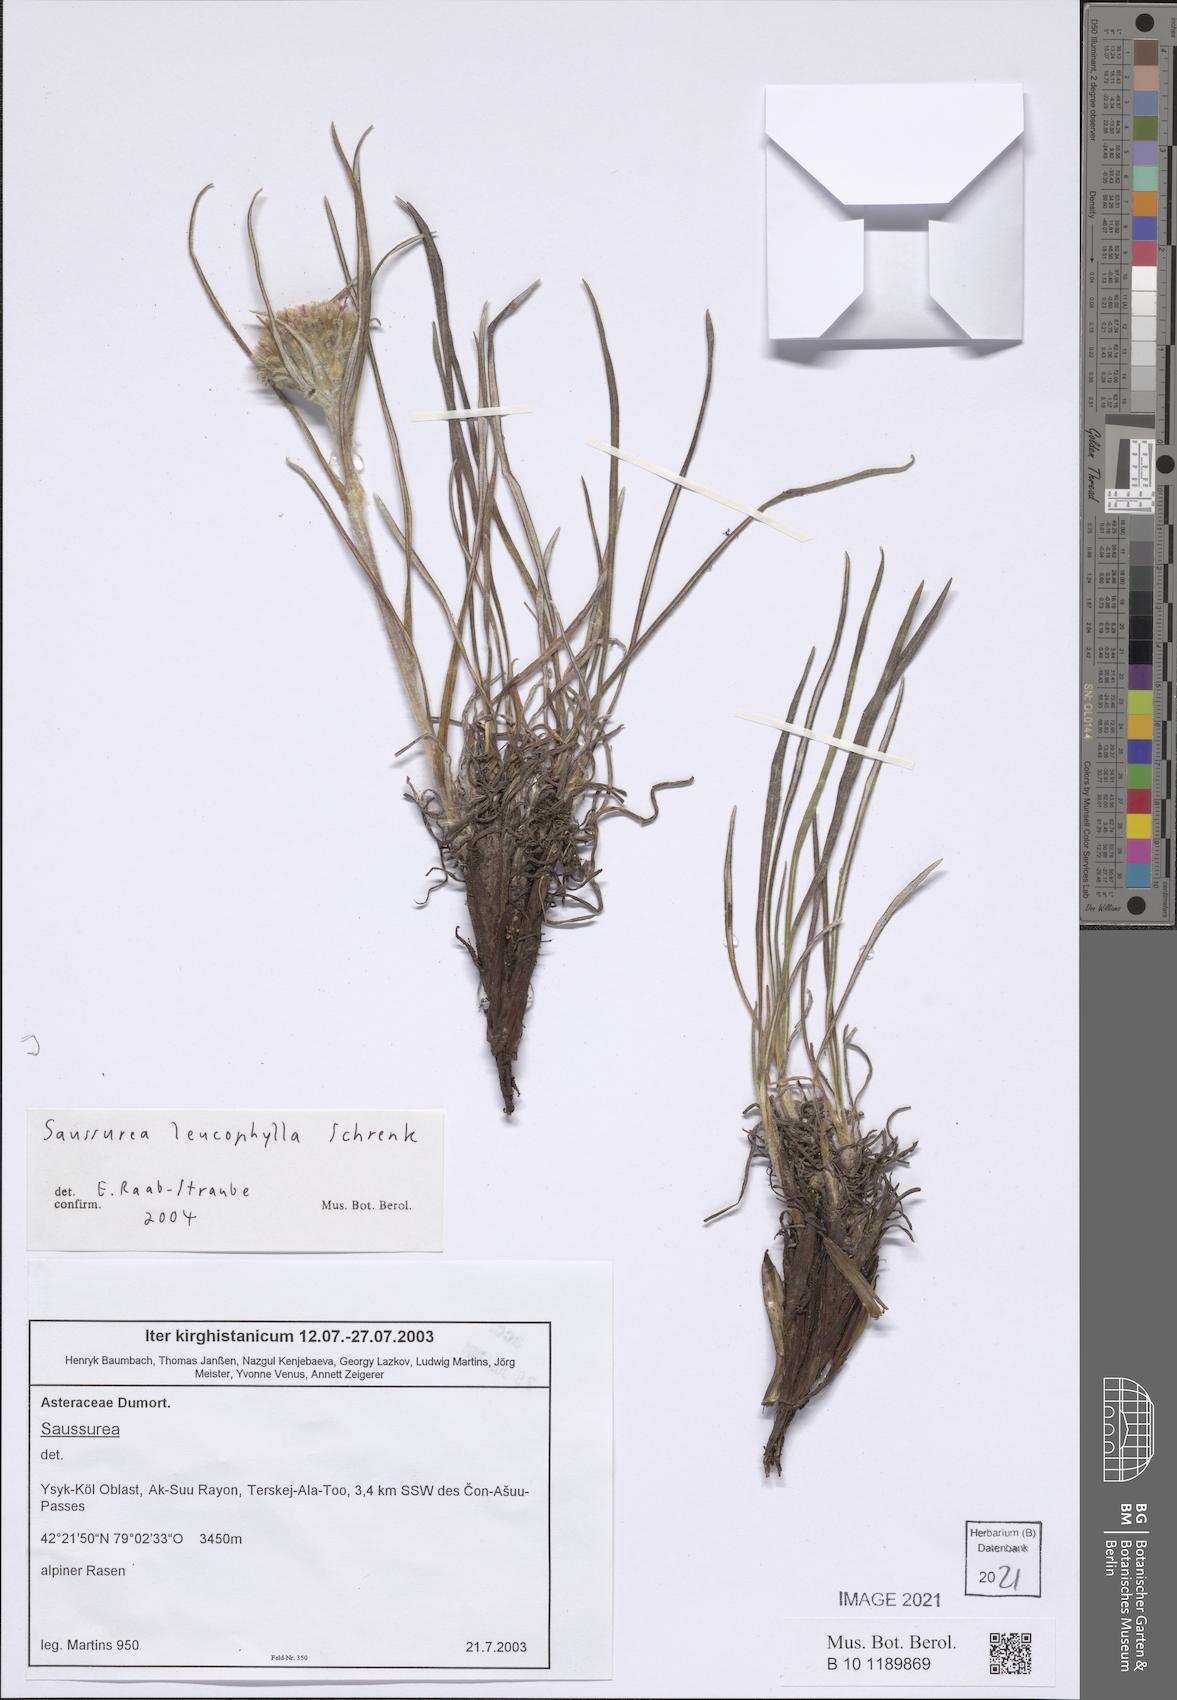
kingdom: Plantae
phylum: Tracheophyta
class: Magnoliopsida
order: Asterales
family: Asteraceae
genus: Saussurea
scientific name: Saussurea leucophylla
